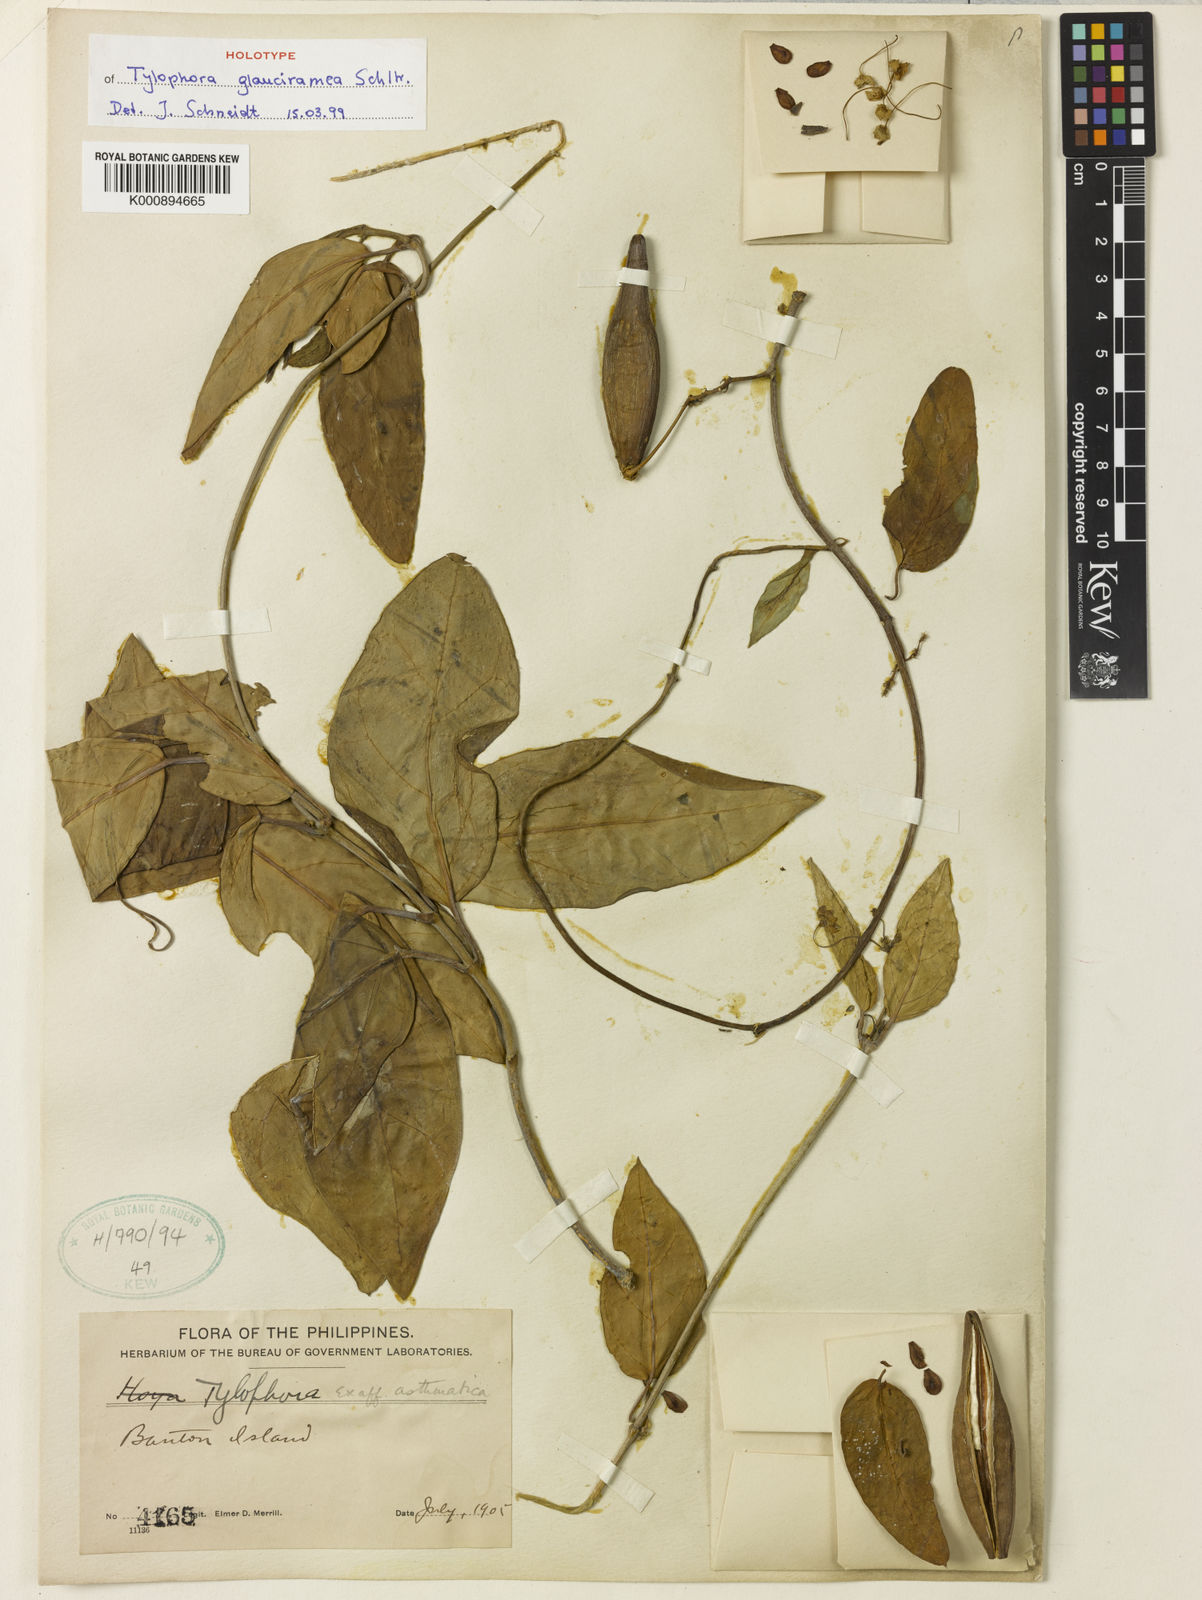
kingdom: Plantae
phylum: Tracheophyta
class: Magnoliopsida
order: Gentianales
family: Apocynaceae
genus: Vincetoxicum
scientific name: Vincetoxicum glaucirameum
